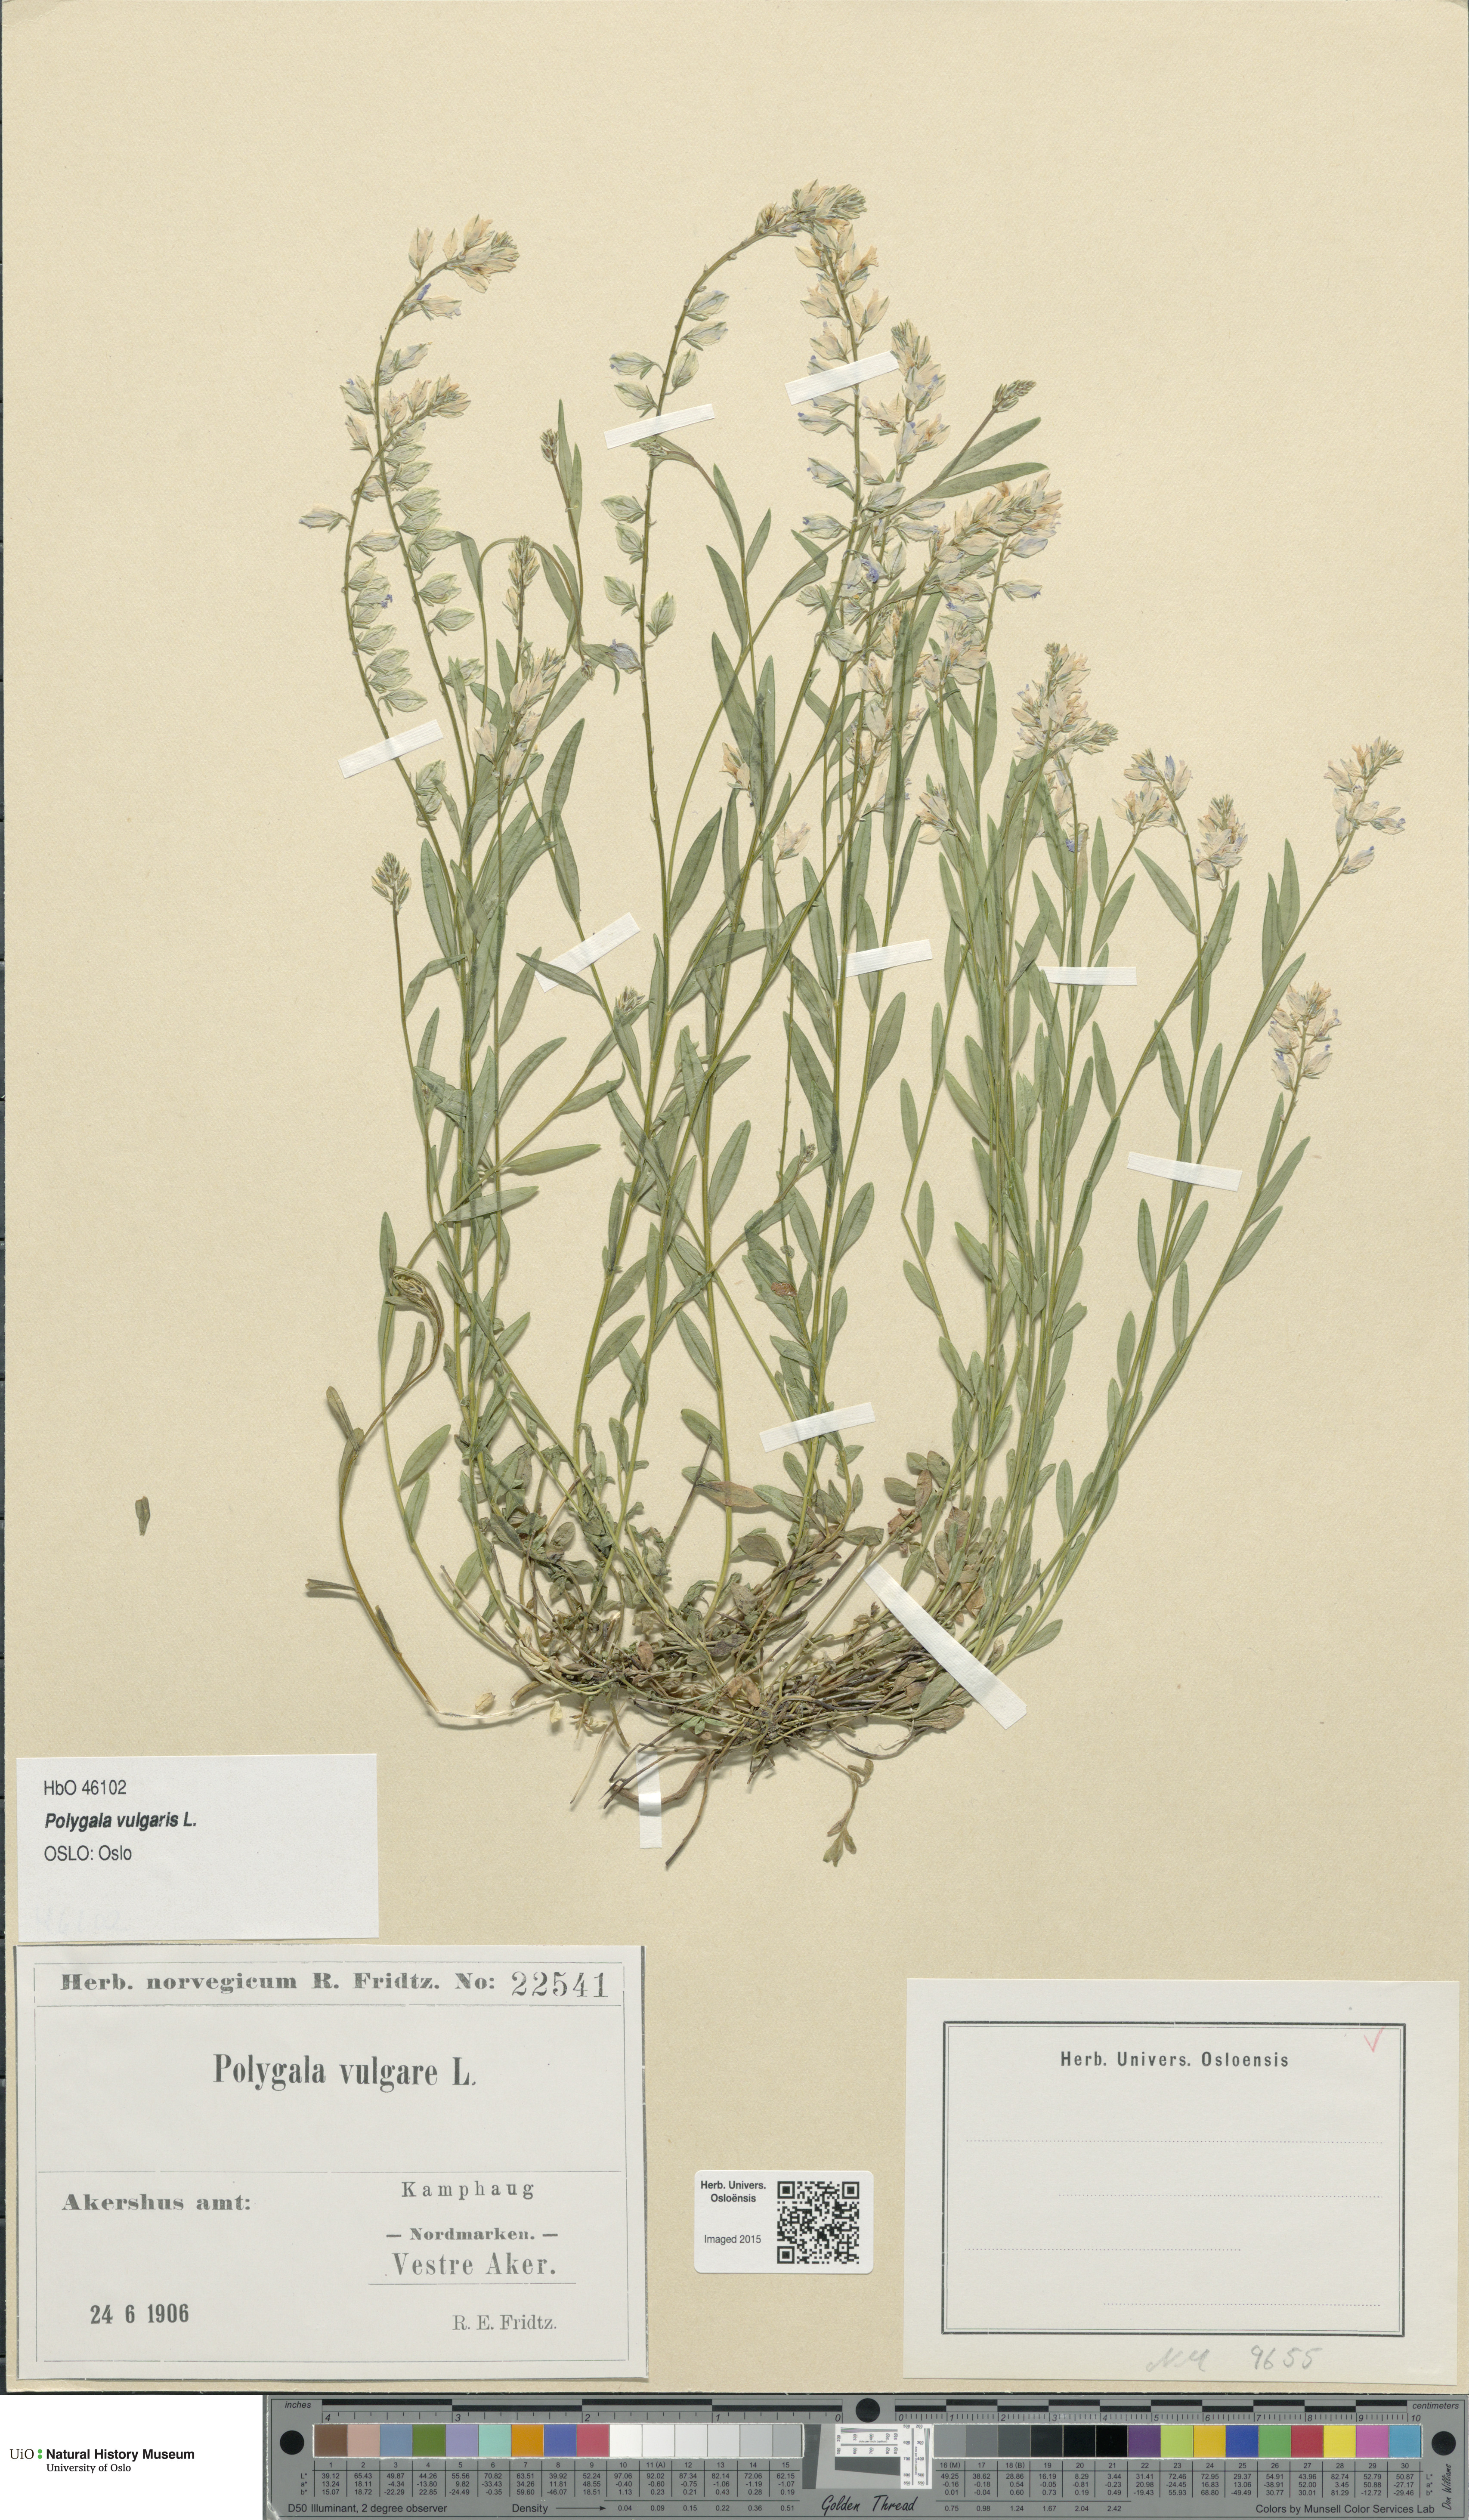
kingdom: Plantae
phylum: Tracheophyta
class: Magnoliopsida
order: Fabales
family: Polygalaceae
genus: Polygala
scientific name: Polygala vulgaris
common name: Common milkwort
